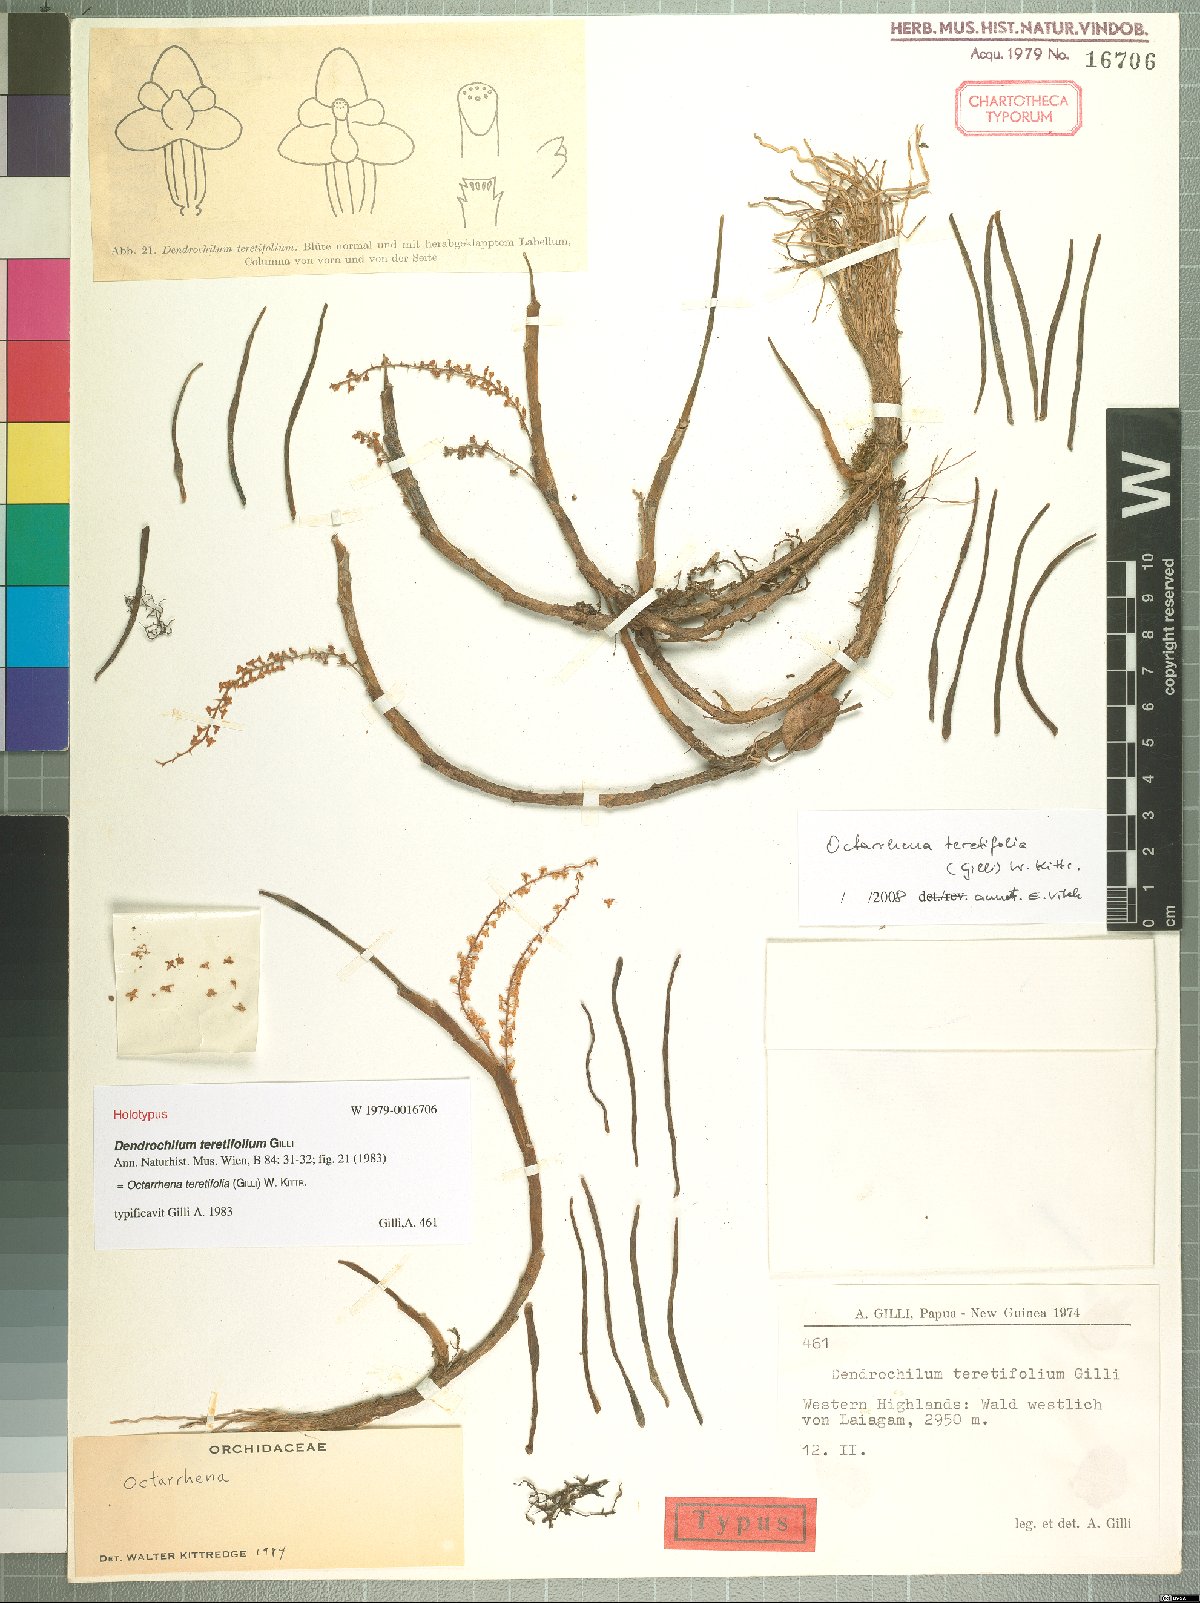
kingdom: Plantae
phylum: Tracheophyta
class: Liliopsida
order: Asparagales
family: Orchidaceae
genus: Phreatia
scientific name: Phreatia teretifolia
